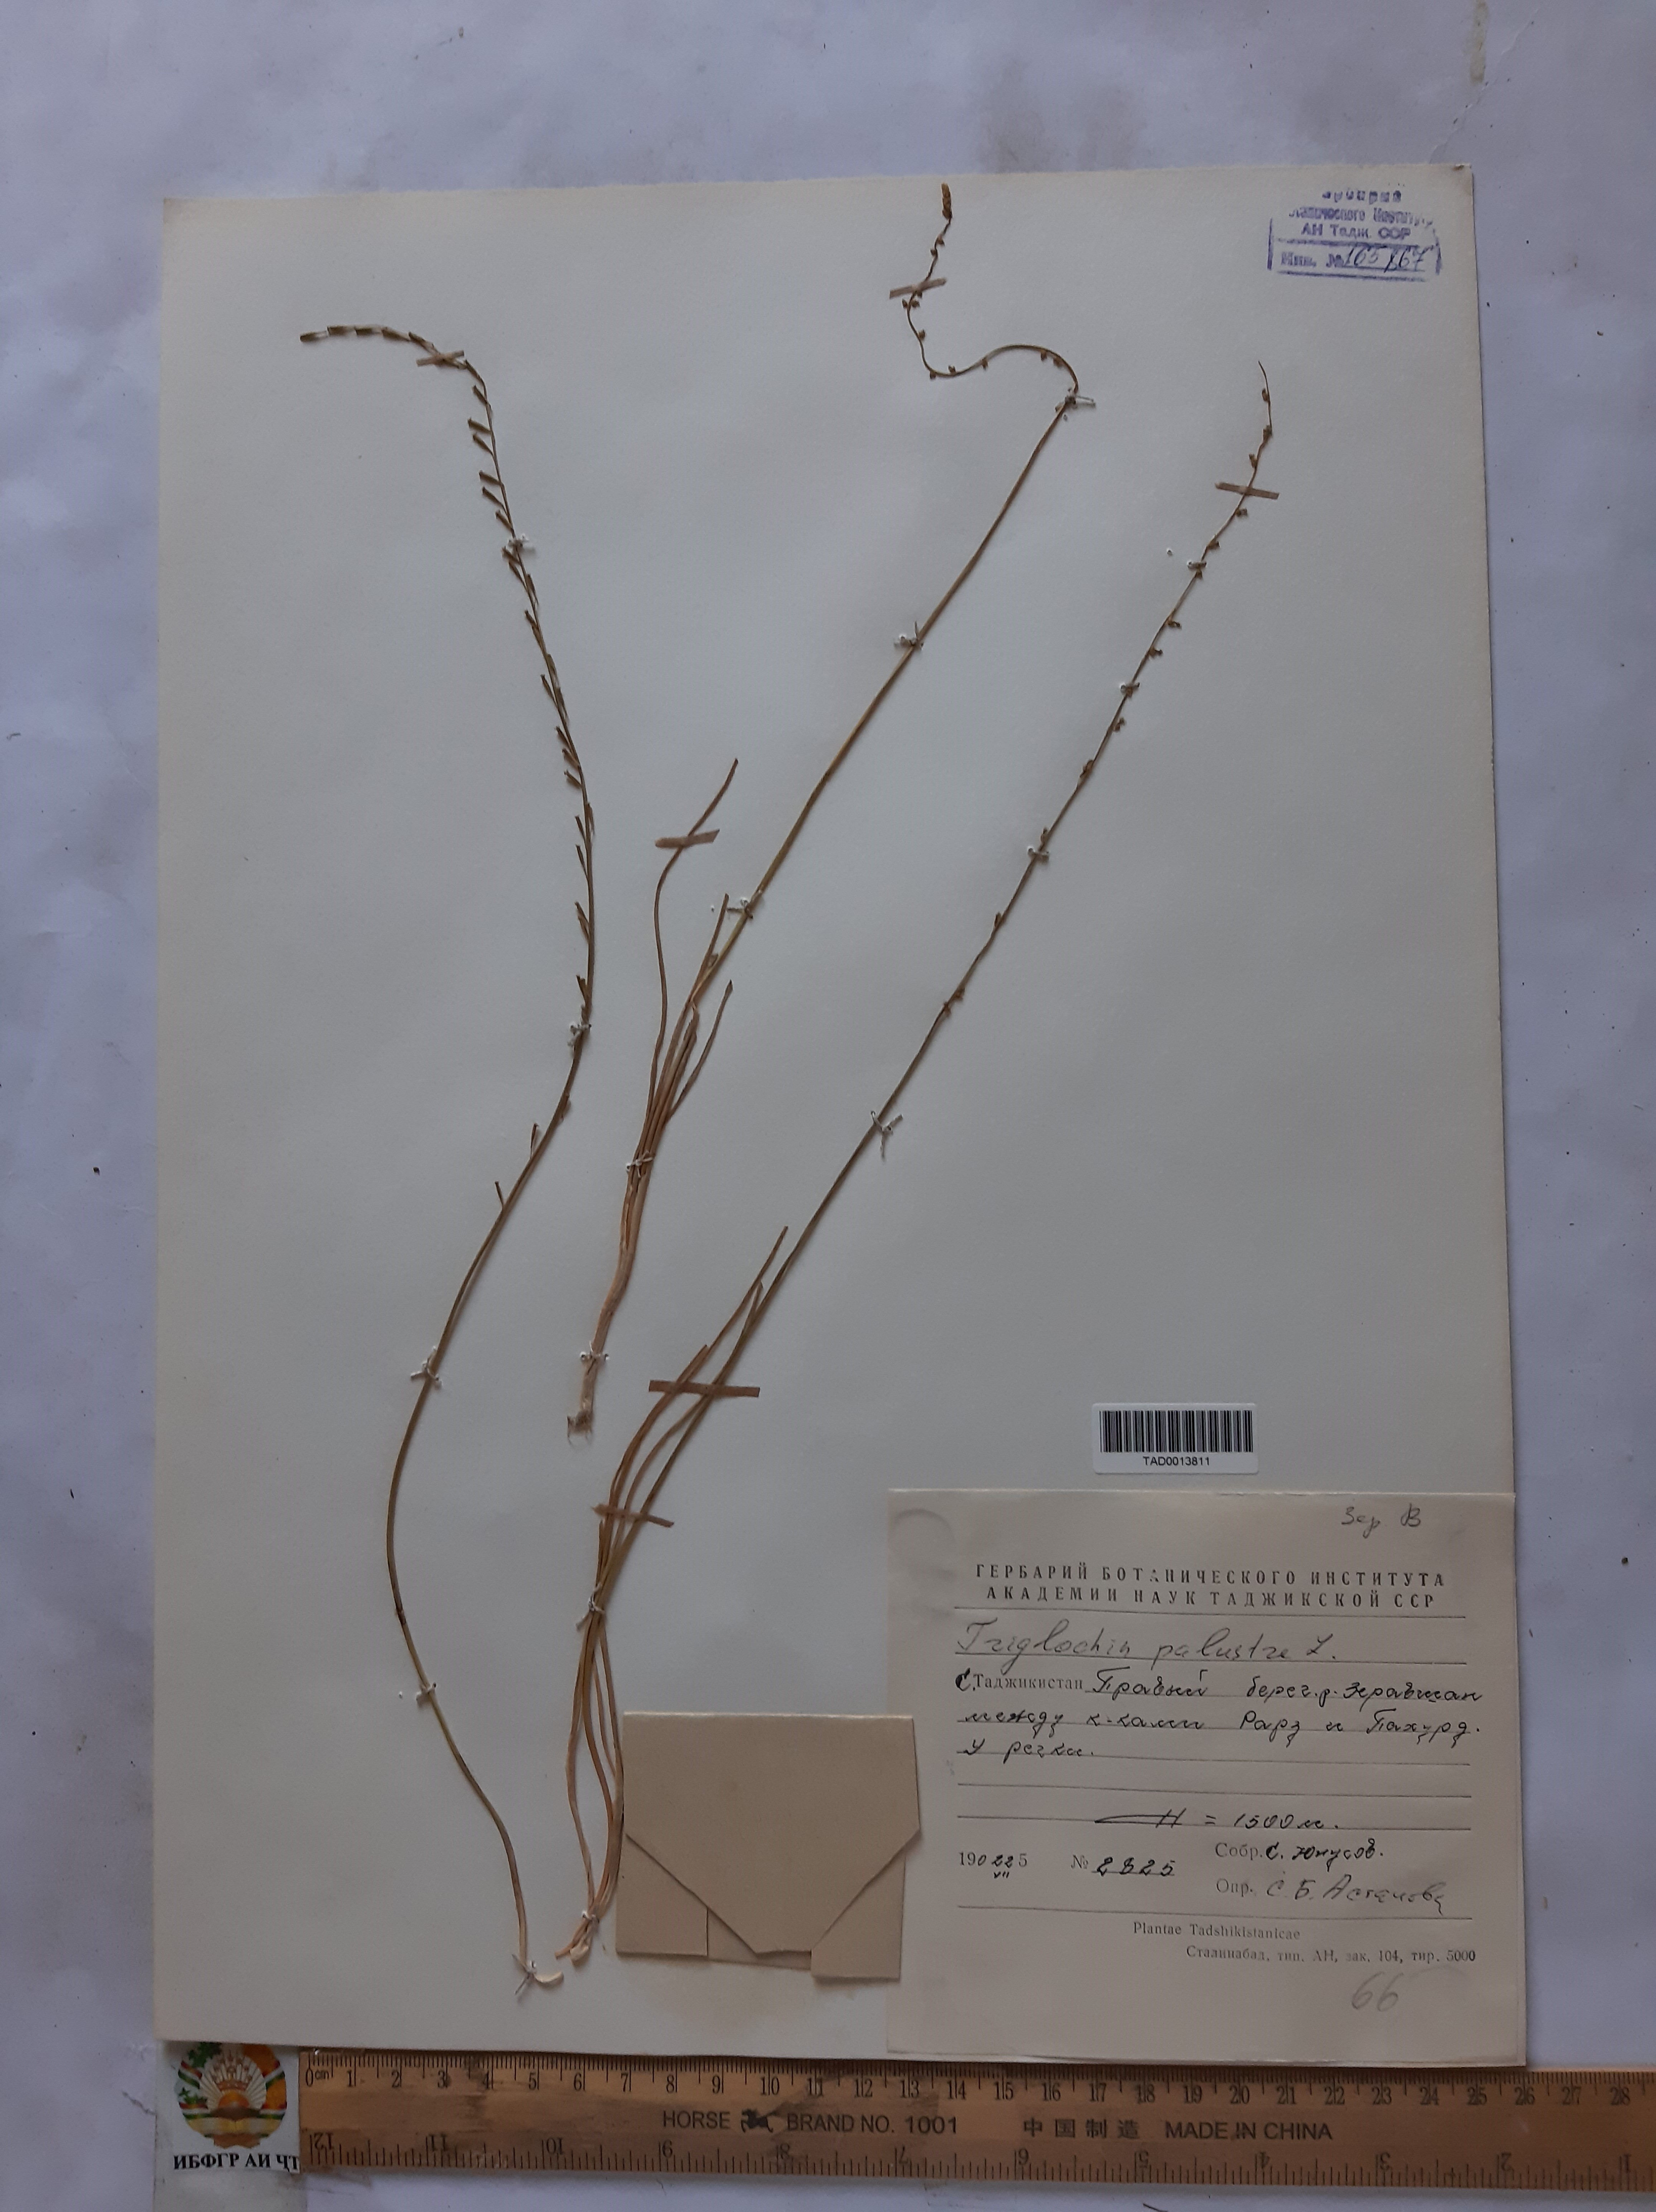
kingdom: Plantae
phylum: Tracheophyta
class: Liliopsida
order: Alismatales
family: Juncaginaceae
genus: Triglochin
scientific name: Triglochin palustris
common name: Marsh arrowgrass
